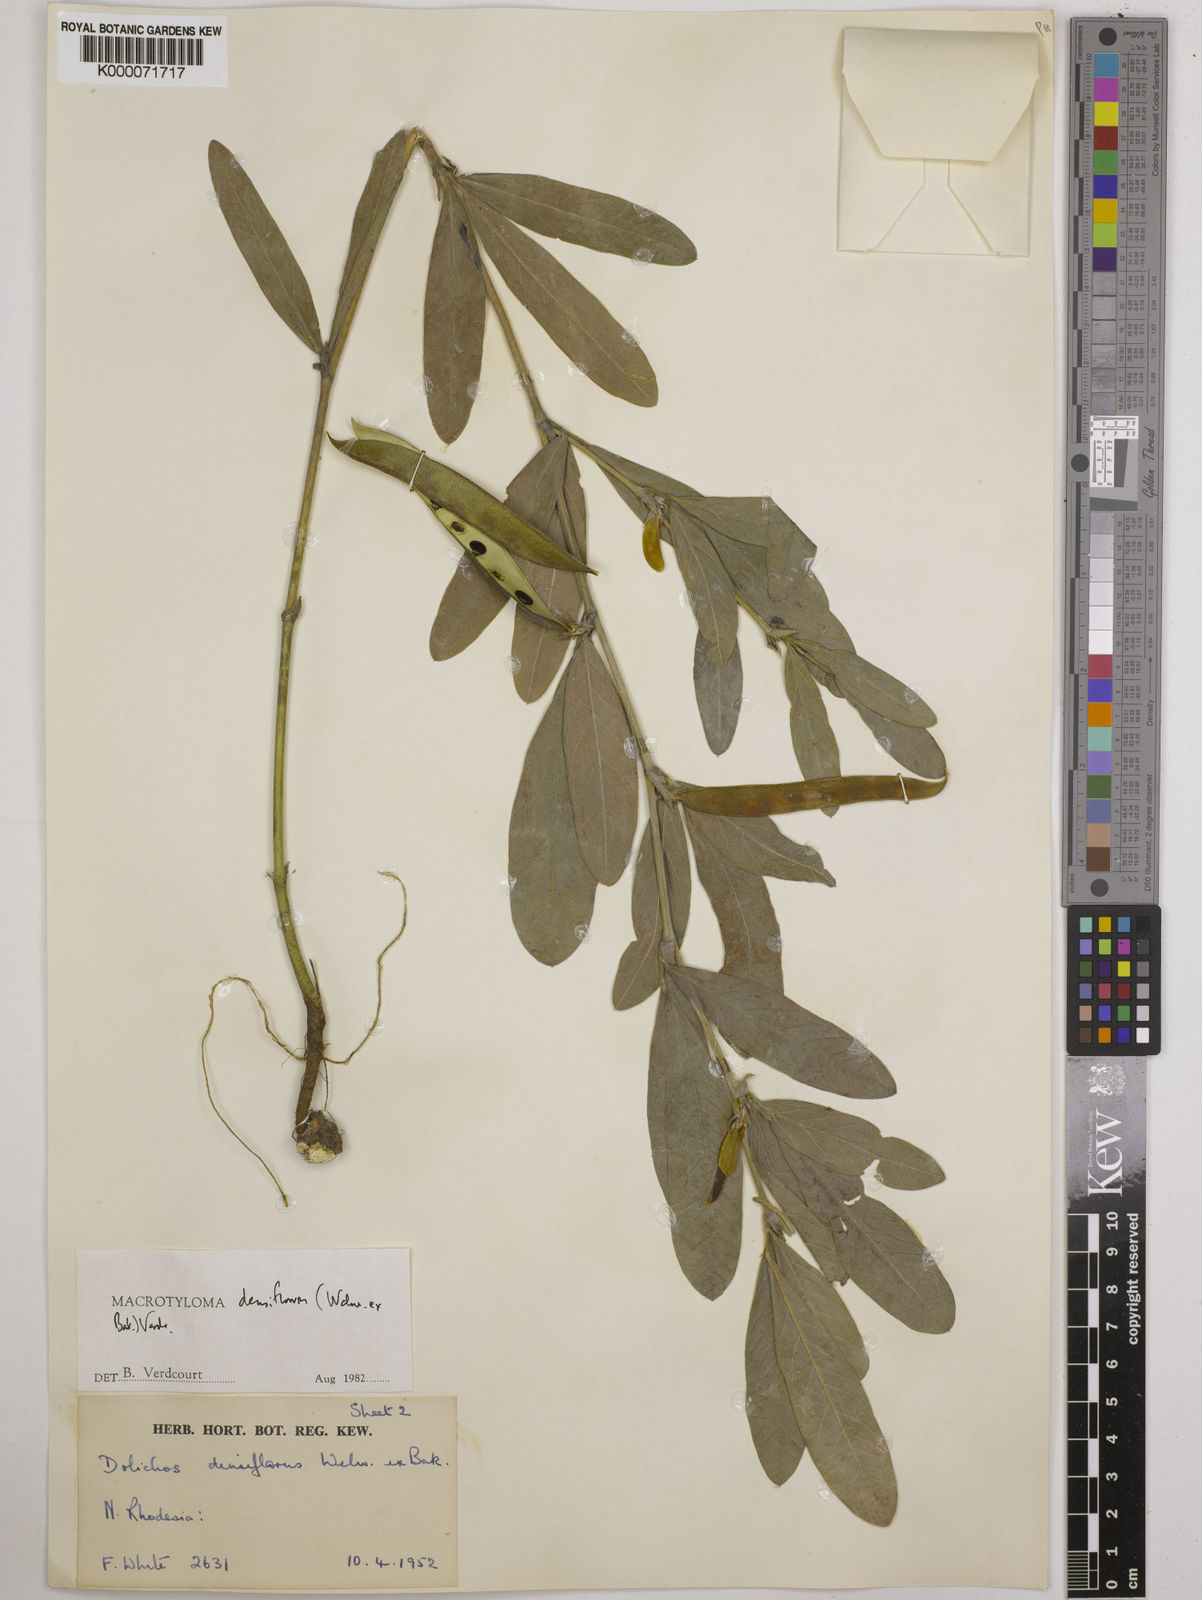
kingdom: Plantae
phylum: Tracheophyta
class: Magnoliopsida
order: Fabales
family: Fabaceae
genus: Macrotyloma
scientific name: Macrotyloma densiflorum
